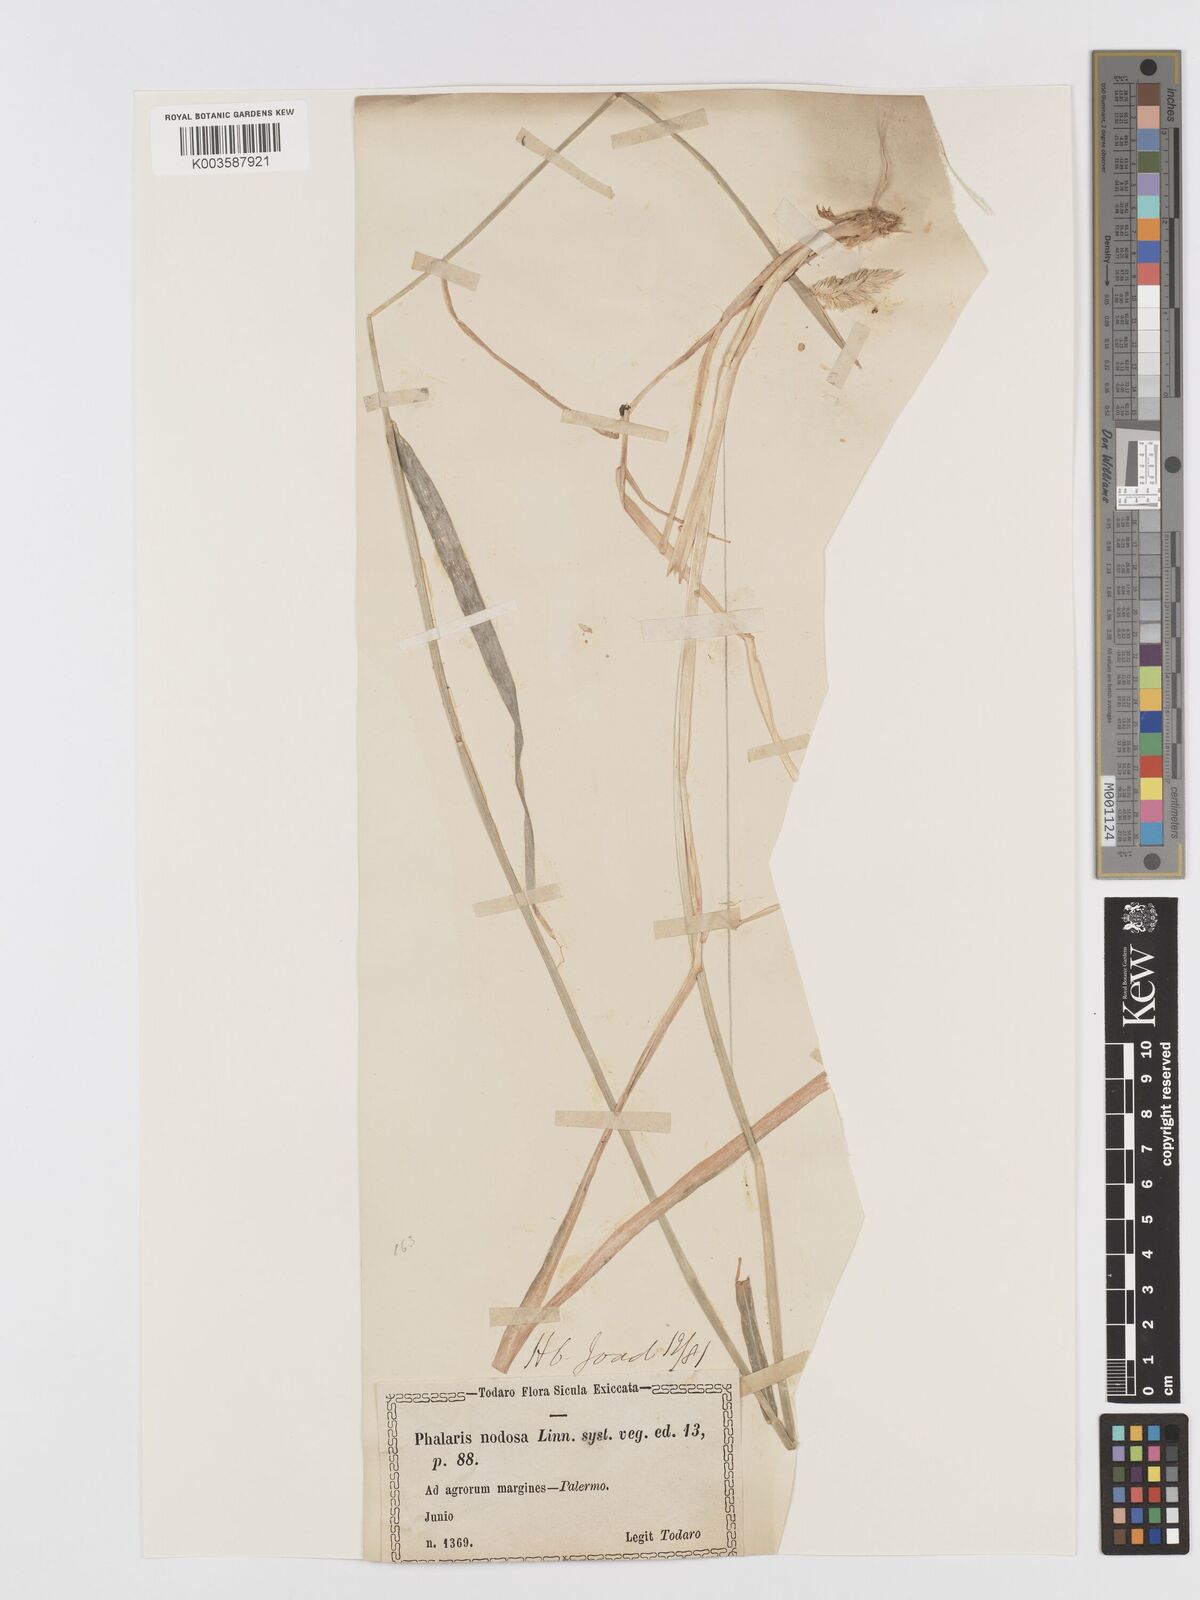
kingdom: Plantae
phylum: Tracheophyta
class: Liliopsida
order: Poales
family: Poaceae
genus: Phalaris
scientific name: Phalaris
